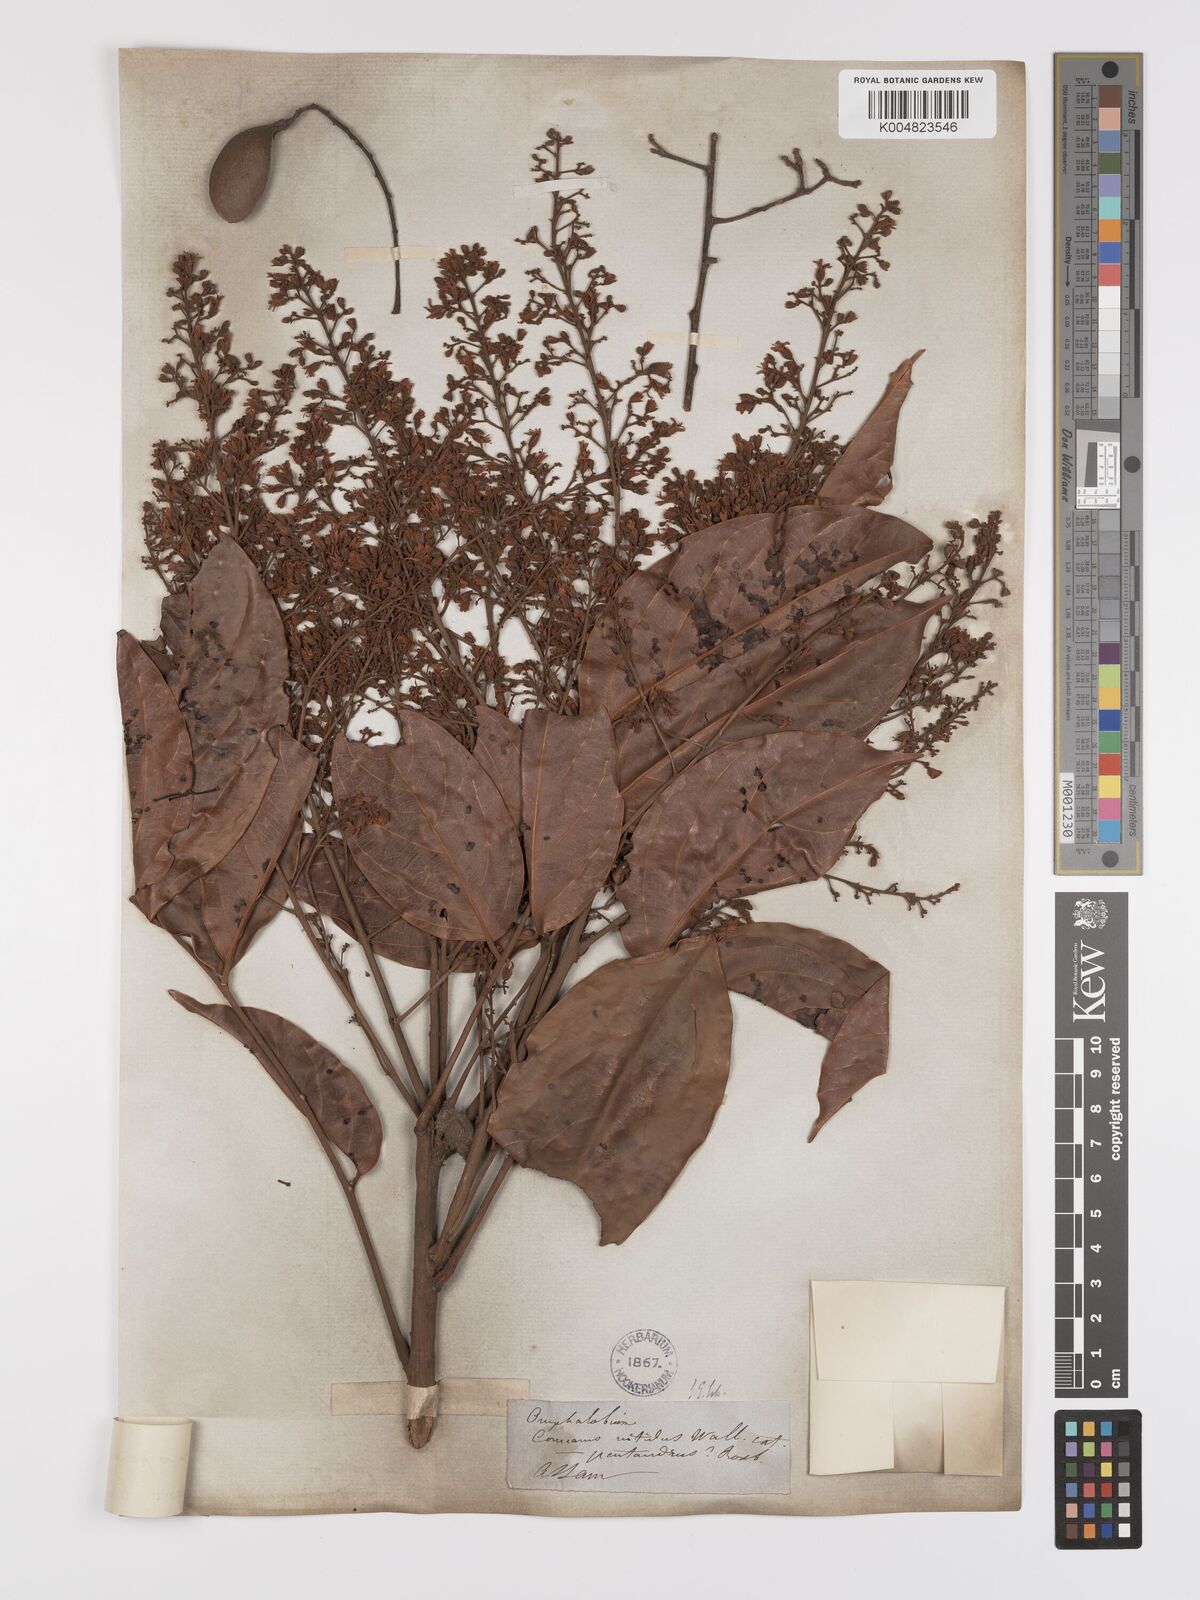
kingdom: Plantae
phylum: Tracheophyta
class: Magnoliopsida
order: Oxalidales
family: Connaraceae
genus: Connarus
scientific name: Connarus paniculatus
